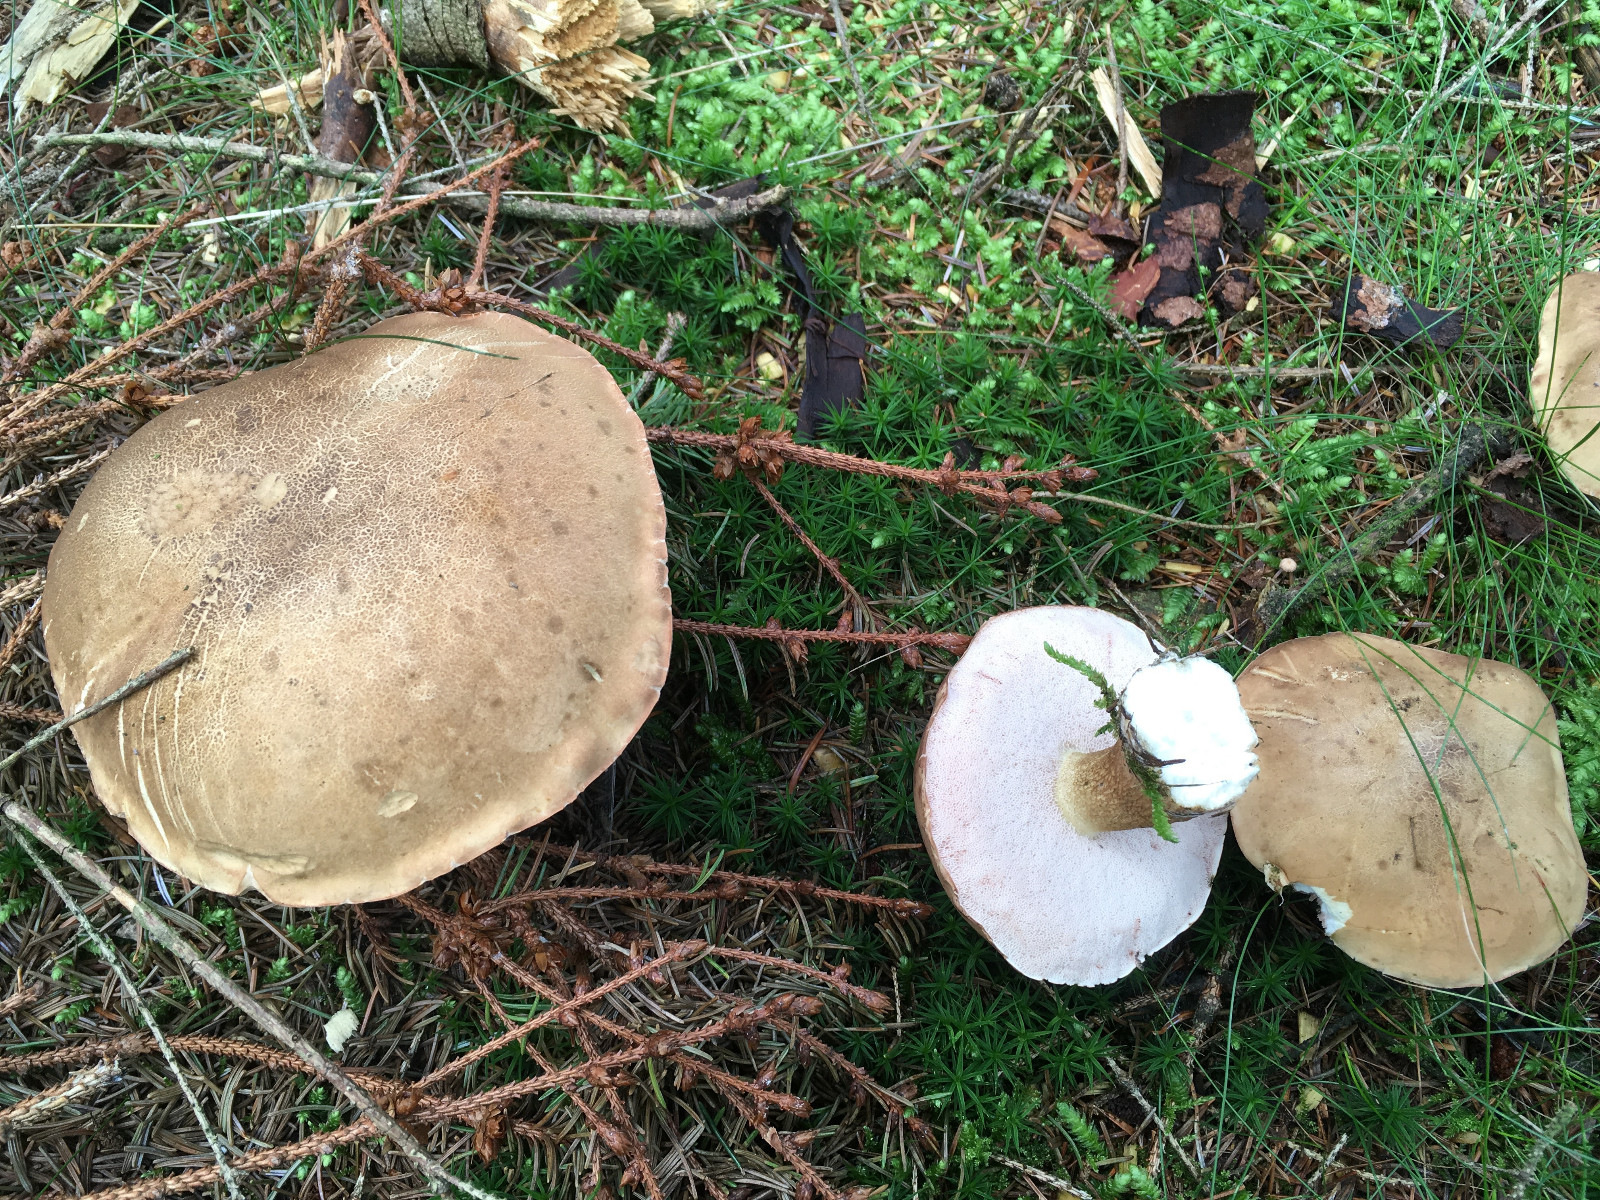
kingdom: Fungi
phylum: Basidiomycota
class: Agaricomycetes
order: Boletales
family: Boletaceae
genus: Tylopilus
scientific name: Tylopilus felleus
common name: galderørhat
